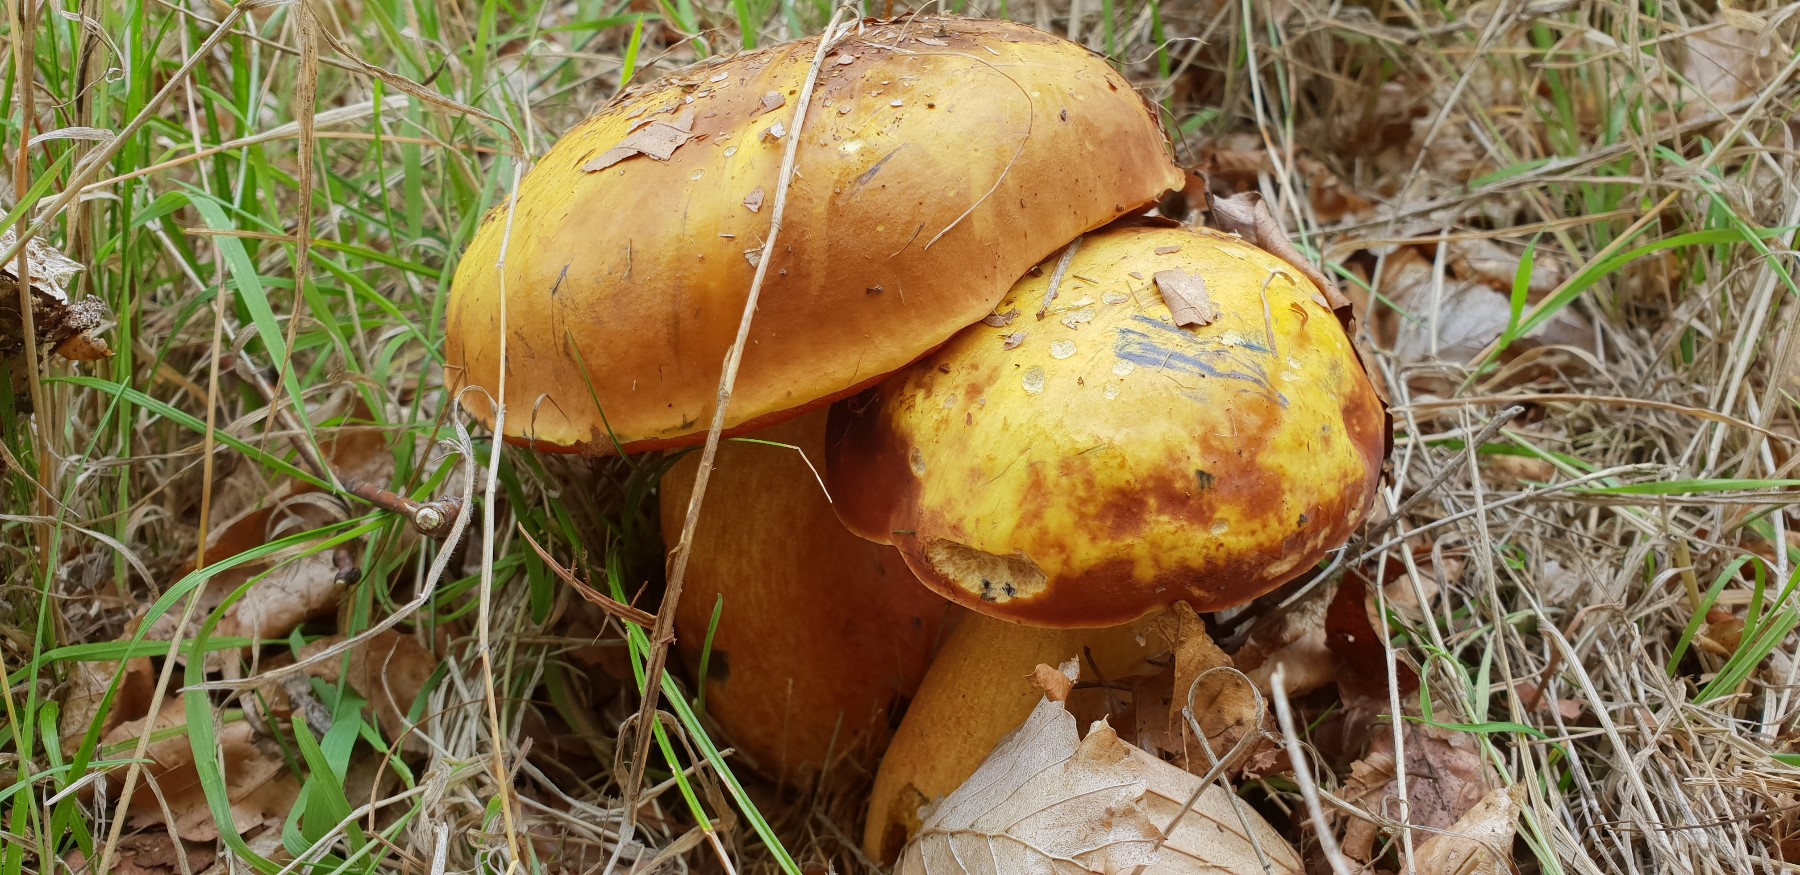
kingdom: Fungi
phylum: Basidiomycota
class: Agaricomycetes
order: Boletales
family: Boletaceae
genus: Neoboletus
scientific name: Neoboletus erythropus
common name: punktstokket indigorørhat
